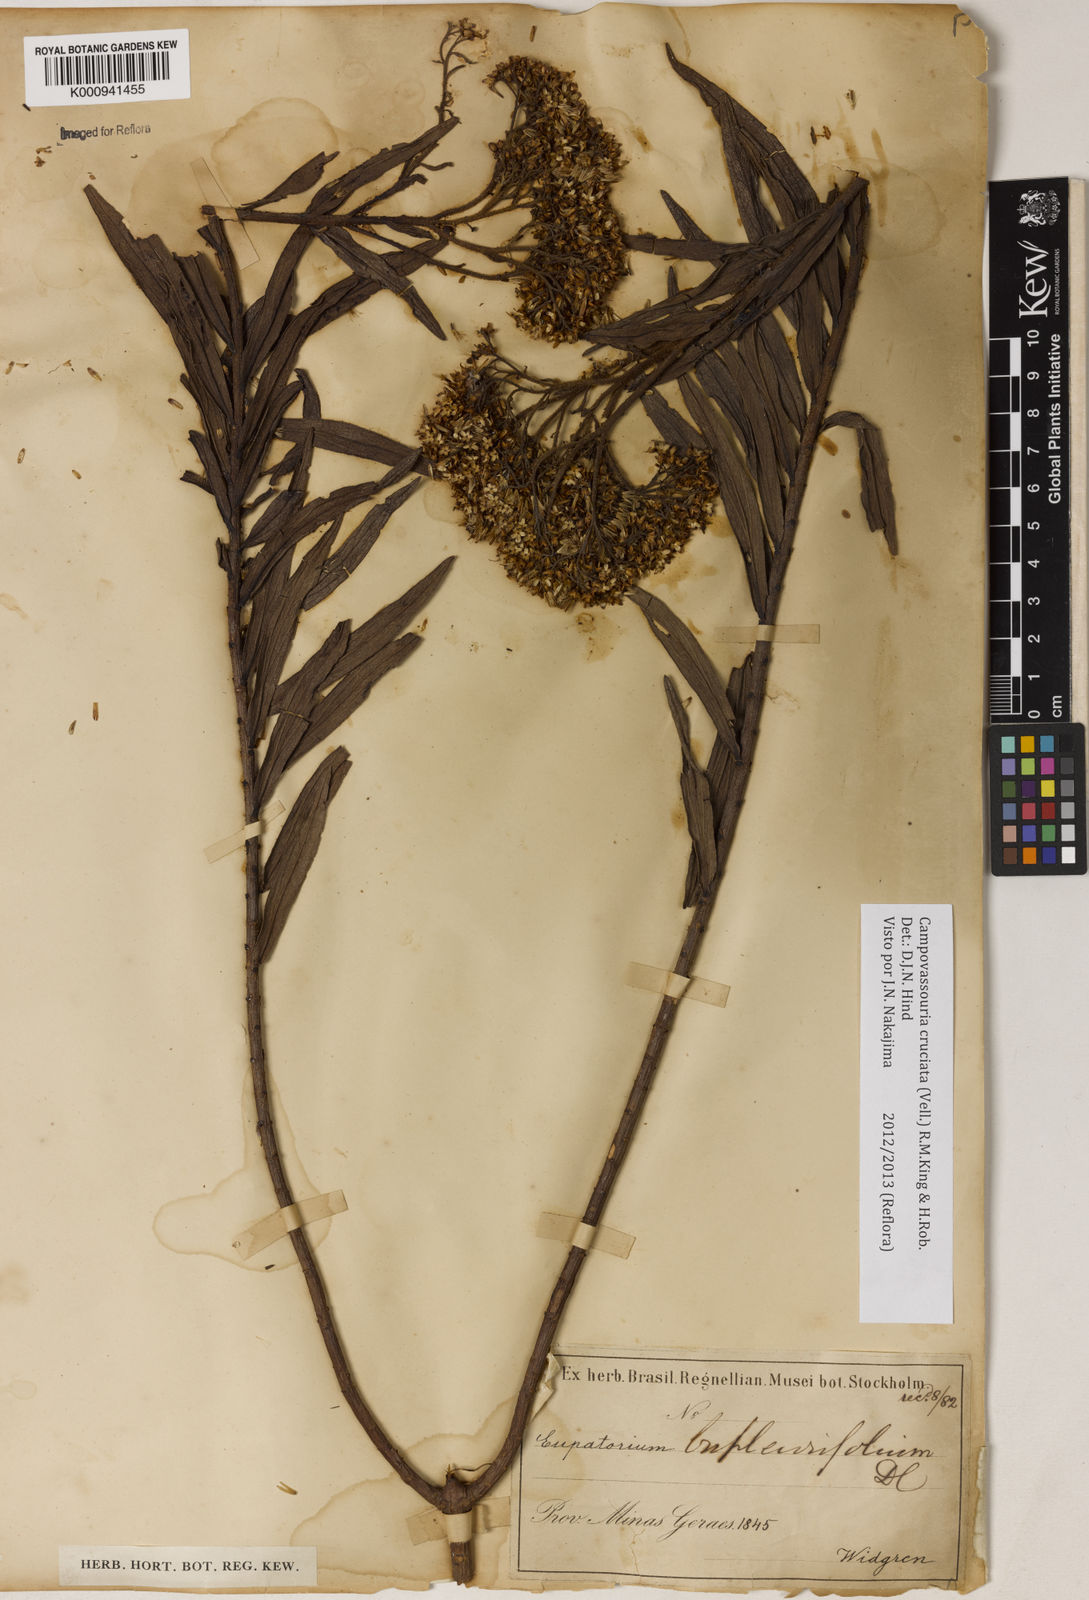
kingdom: Plantae
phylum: Tracheophyta
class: Magnoliopsida
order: Asterales
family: Asteraceae
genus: Campovassouria
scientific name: Campovassouria cruciata
